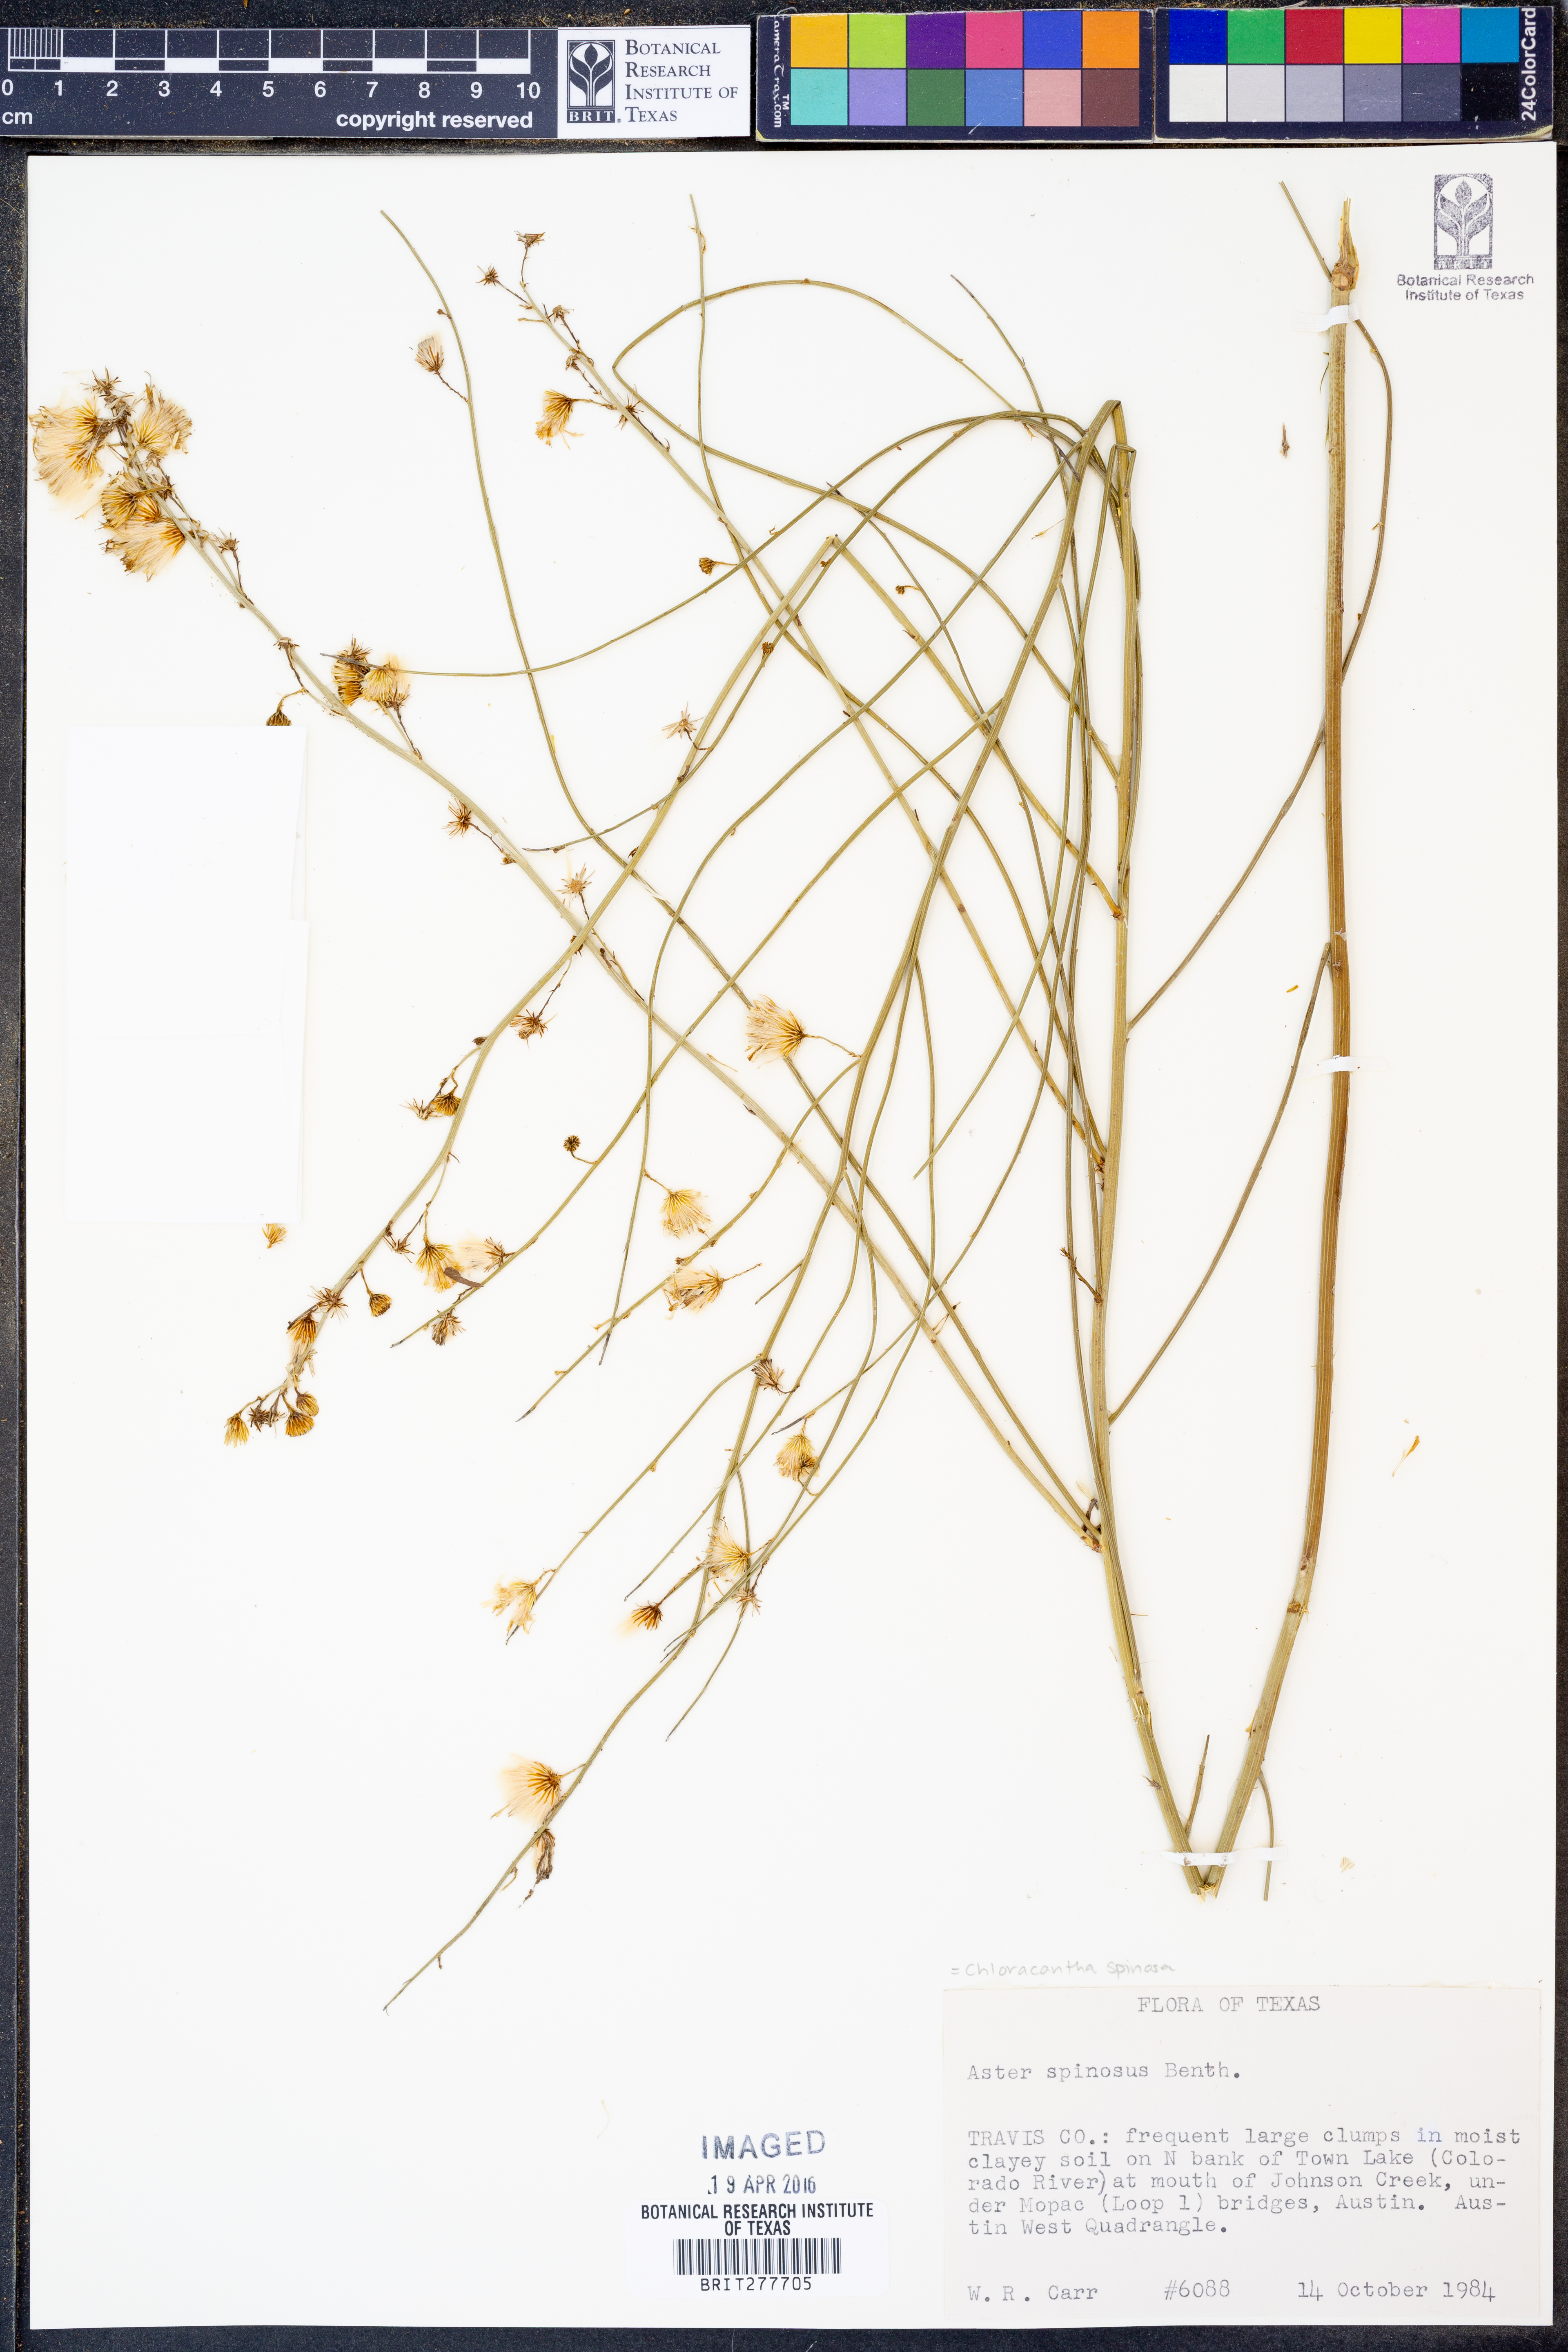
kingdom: Plantae
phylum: Tracheophyta
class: Magnoliopsida
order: Asterales
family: Asteraceae
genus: Chloracantha
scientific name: Chloracantha spinosa
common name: Mexican devilweed
